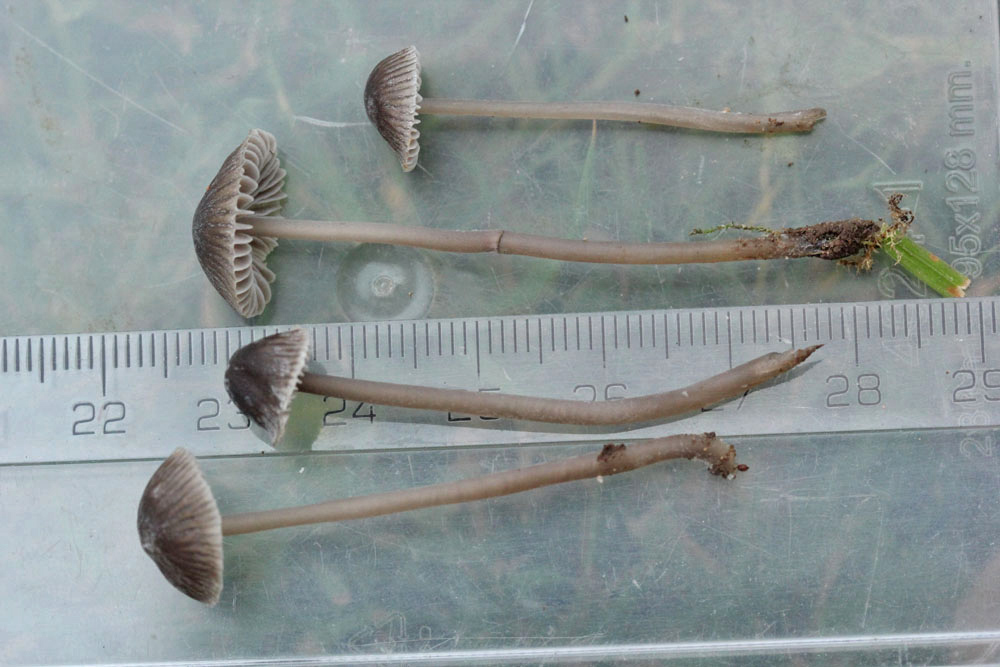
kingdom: Fungi
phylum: Basidiomycota
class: Agaricomycetes
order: Agaricales
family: Mycenaceae
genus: Mycena
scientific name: Mycena aetites
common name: plæne-huesvamp
